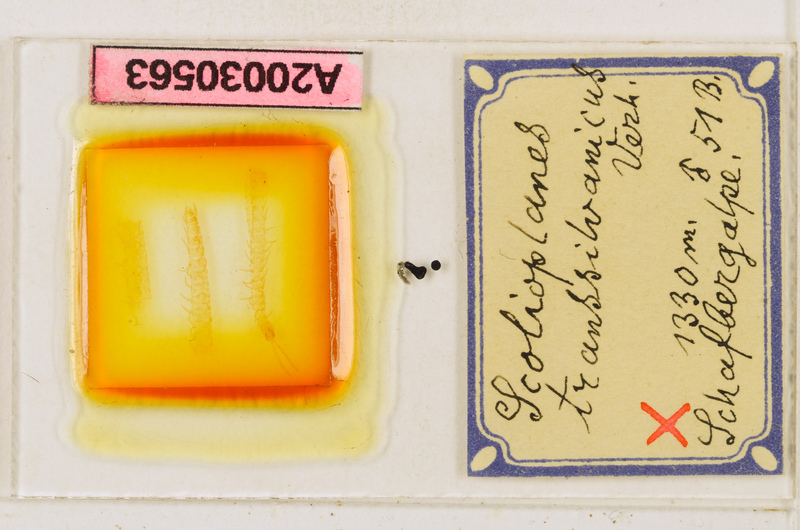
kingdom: Animalia
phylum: Arthropoda
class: Chilopoda
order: Geophilomorpha
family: Linotaeniidae
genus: Strigamia
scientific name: Strigamia transsilvanica
